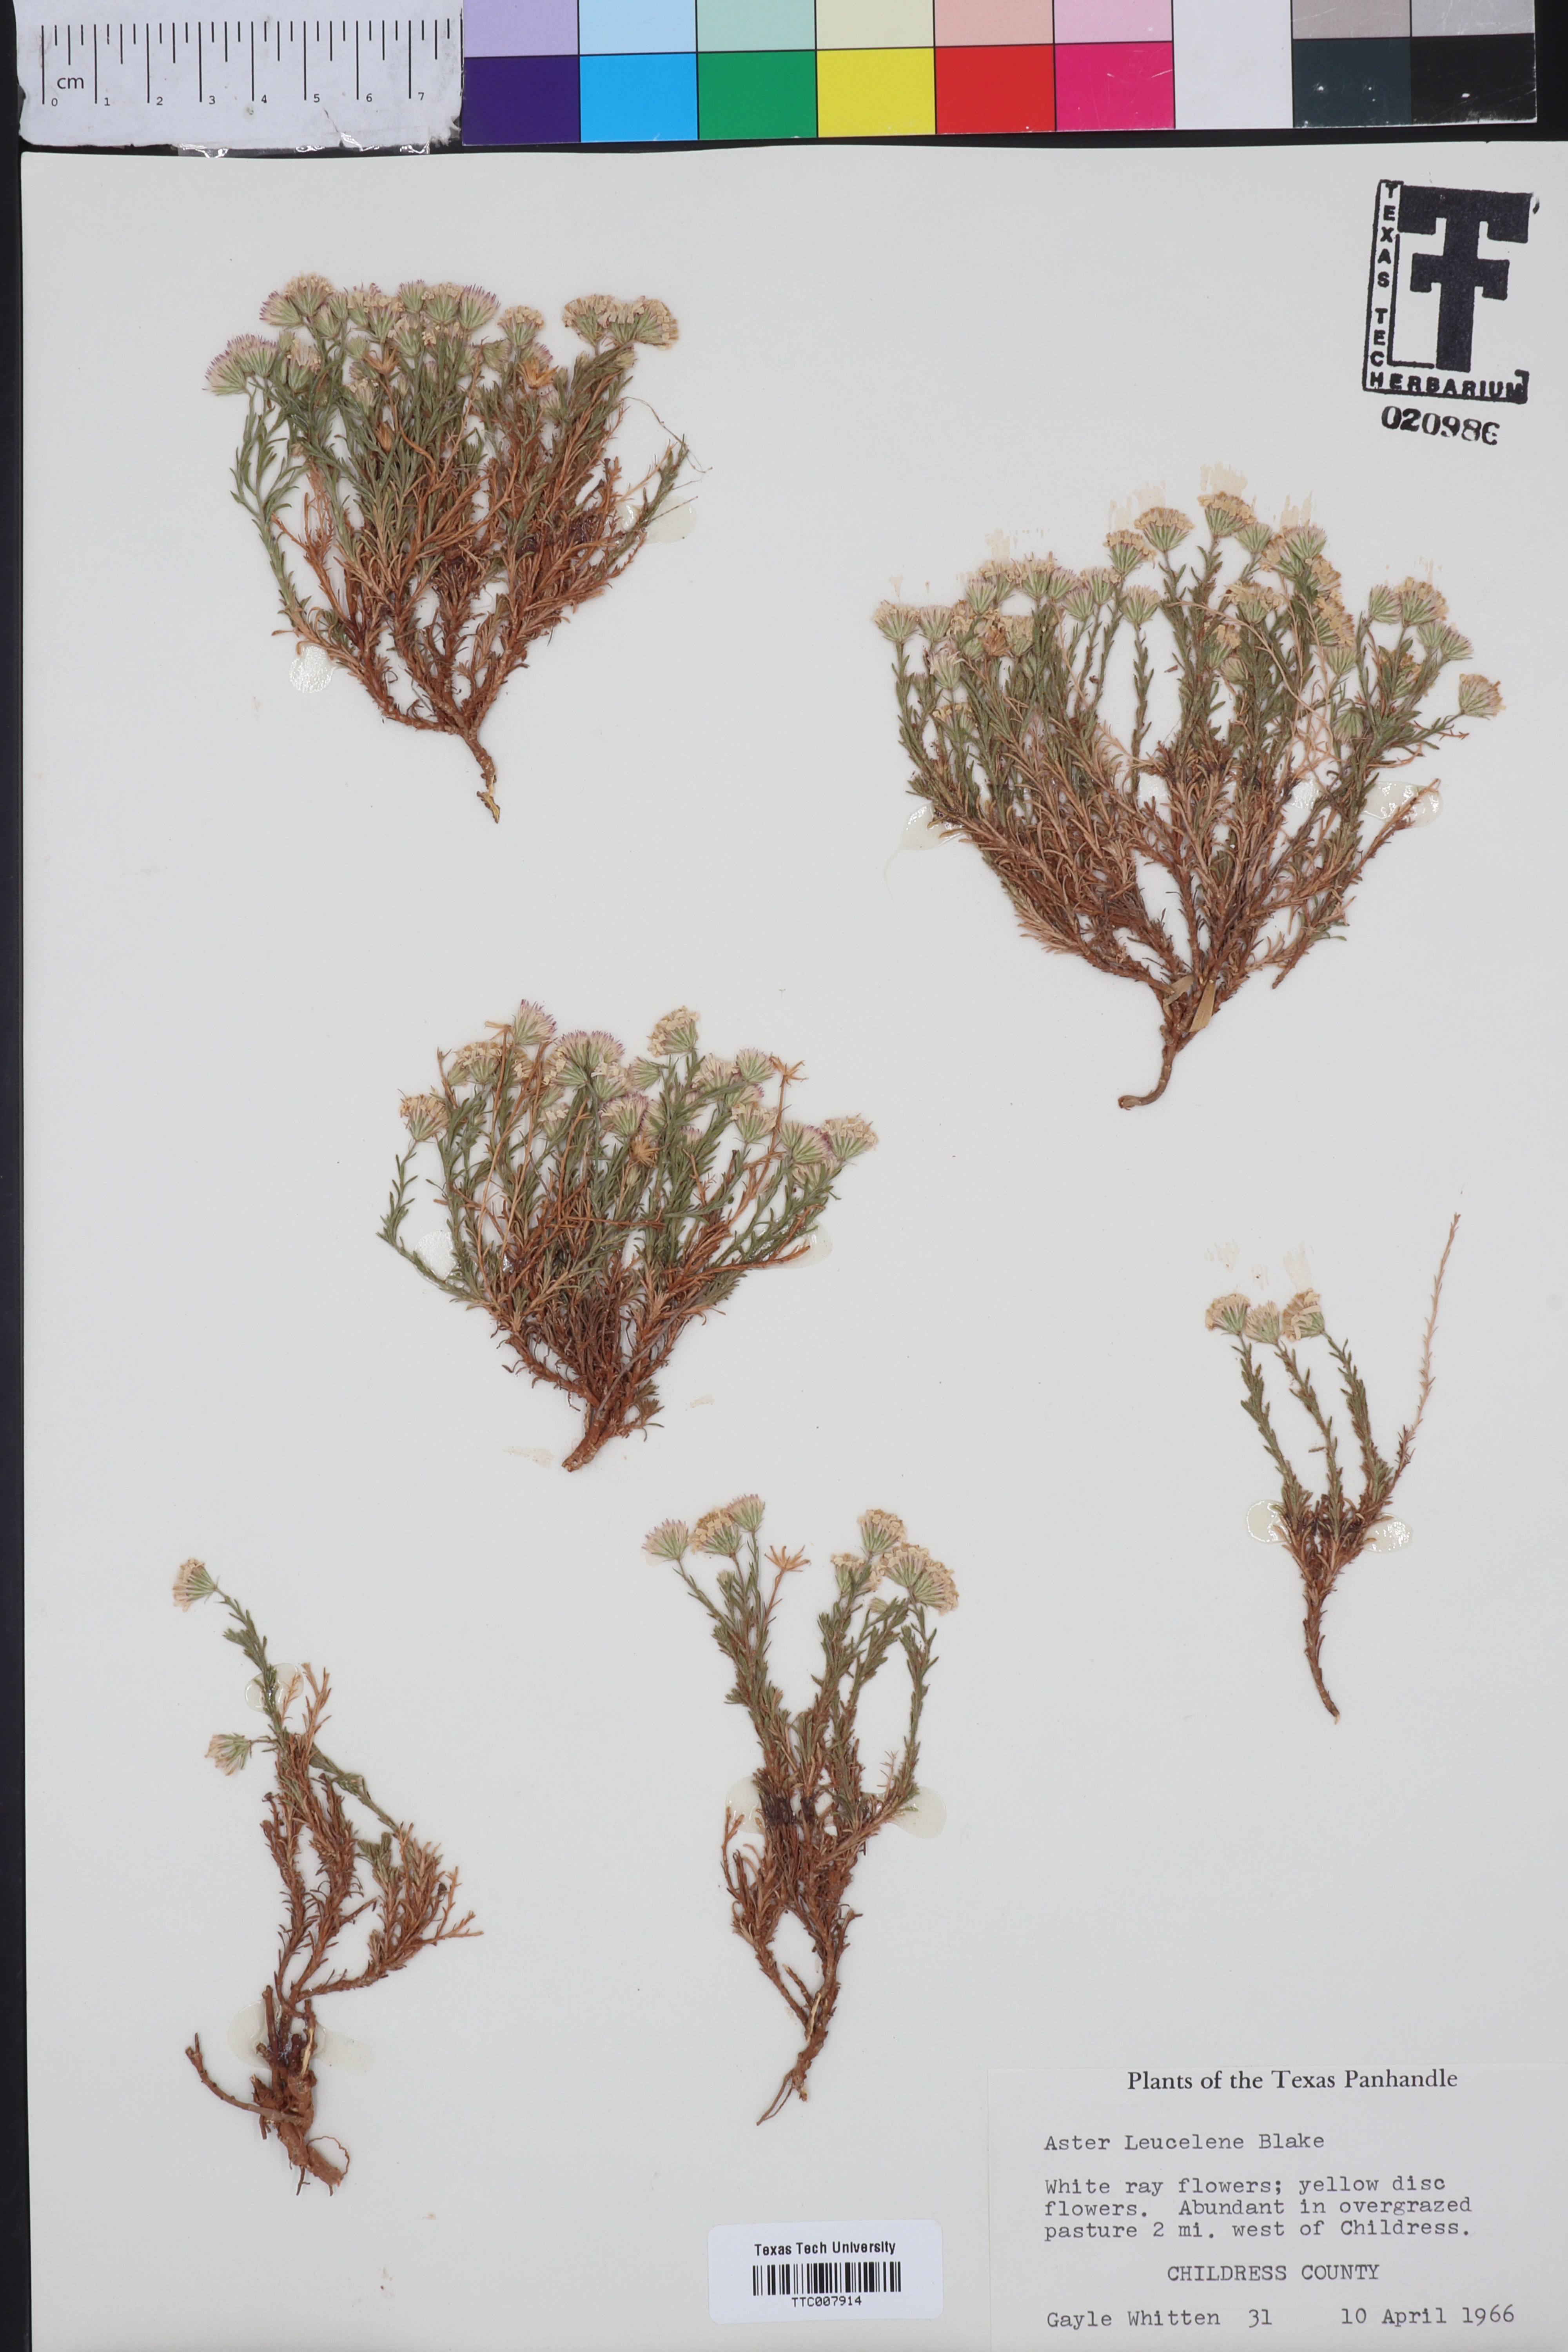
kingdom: Plantae
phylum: Tracheophyta
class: Magnoliopsida
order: Asterales
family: Asteraceae
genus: Chaetopappa
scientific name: Chaetopappa ericoides
